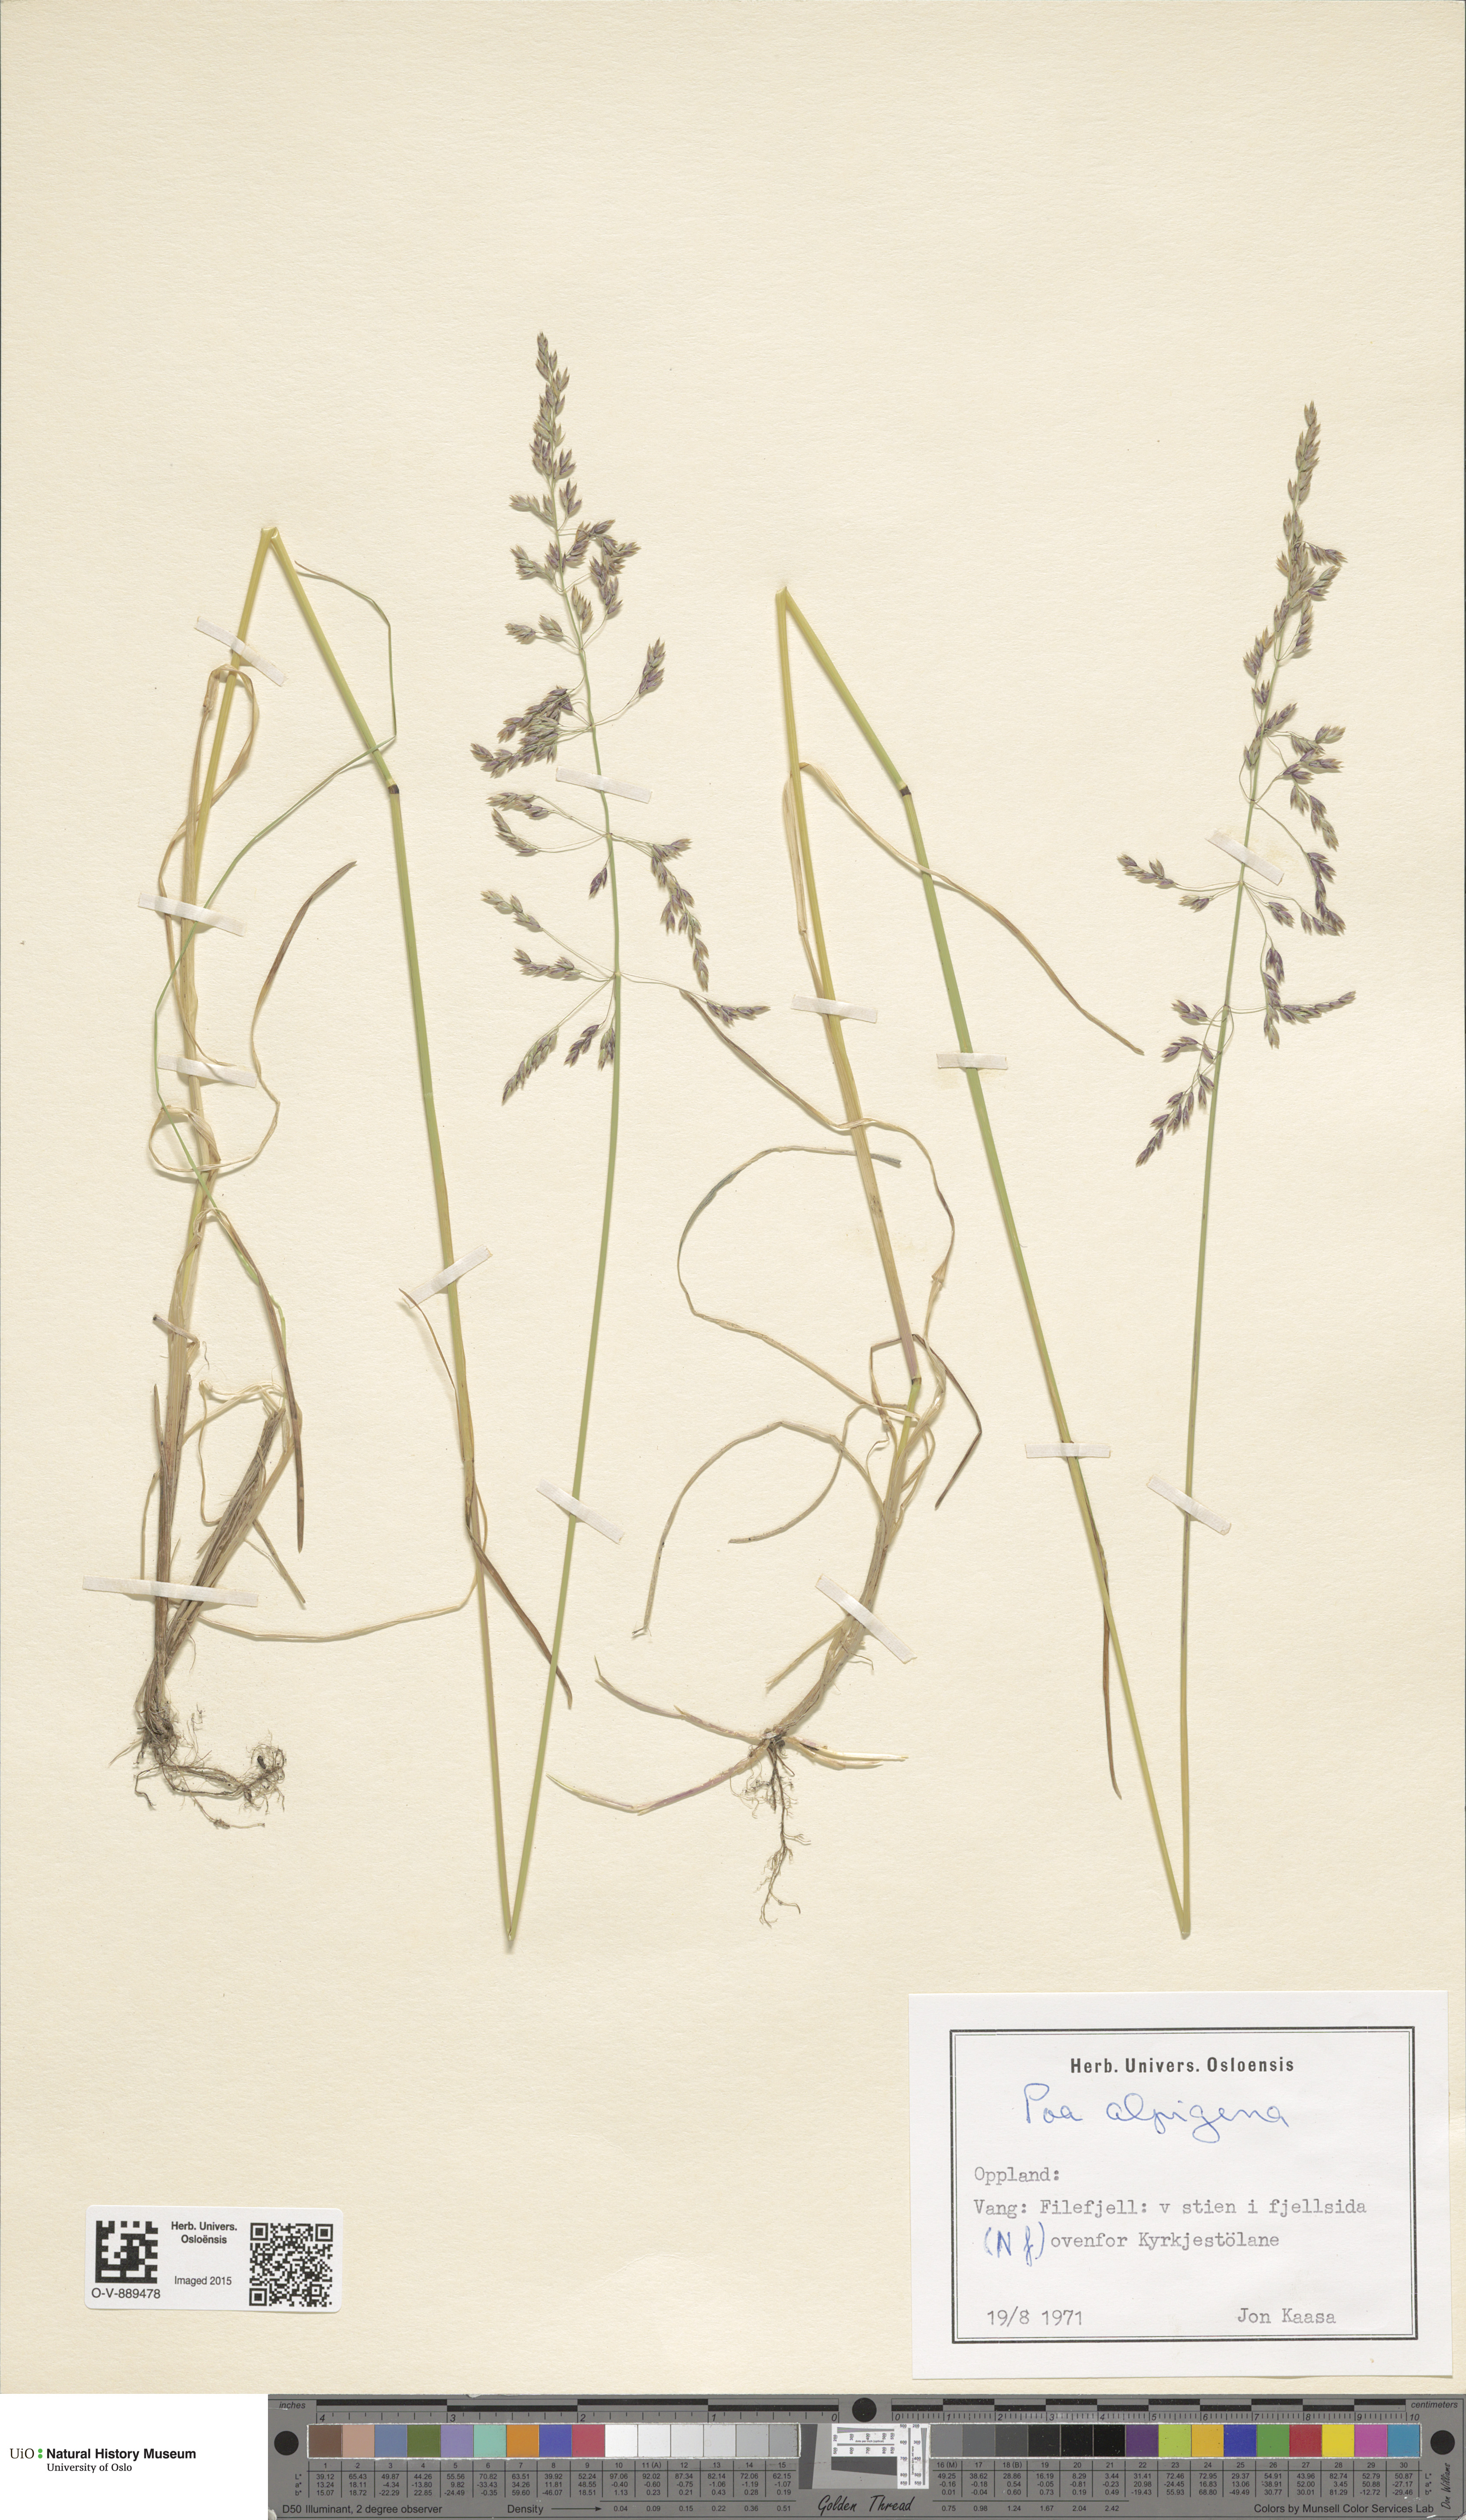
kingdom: Plantae
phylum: Tracheophyta
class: Liliopsida
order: Poales
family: Poaceae
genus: Poa
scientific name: Poa alpigena
